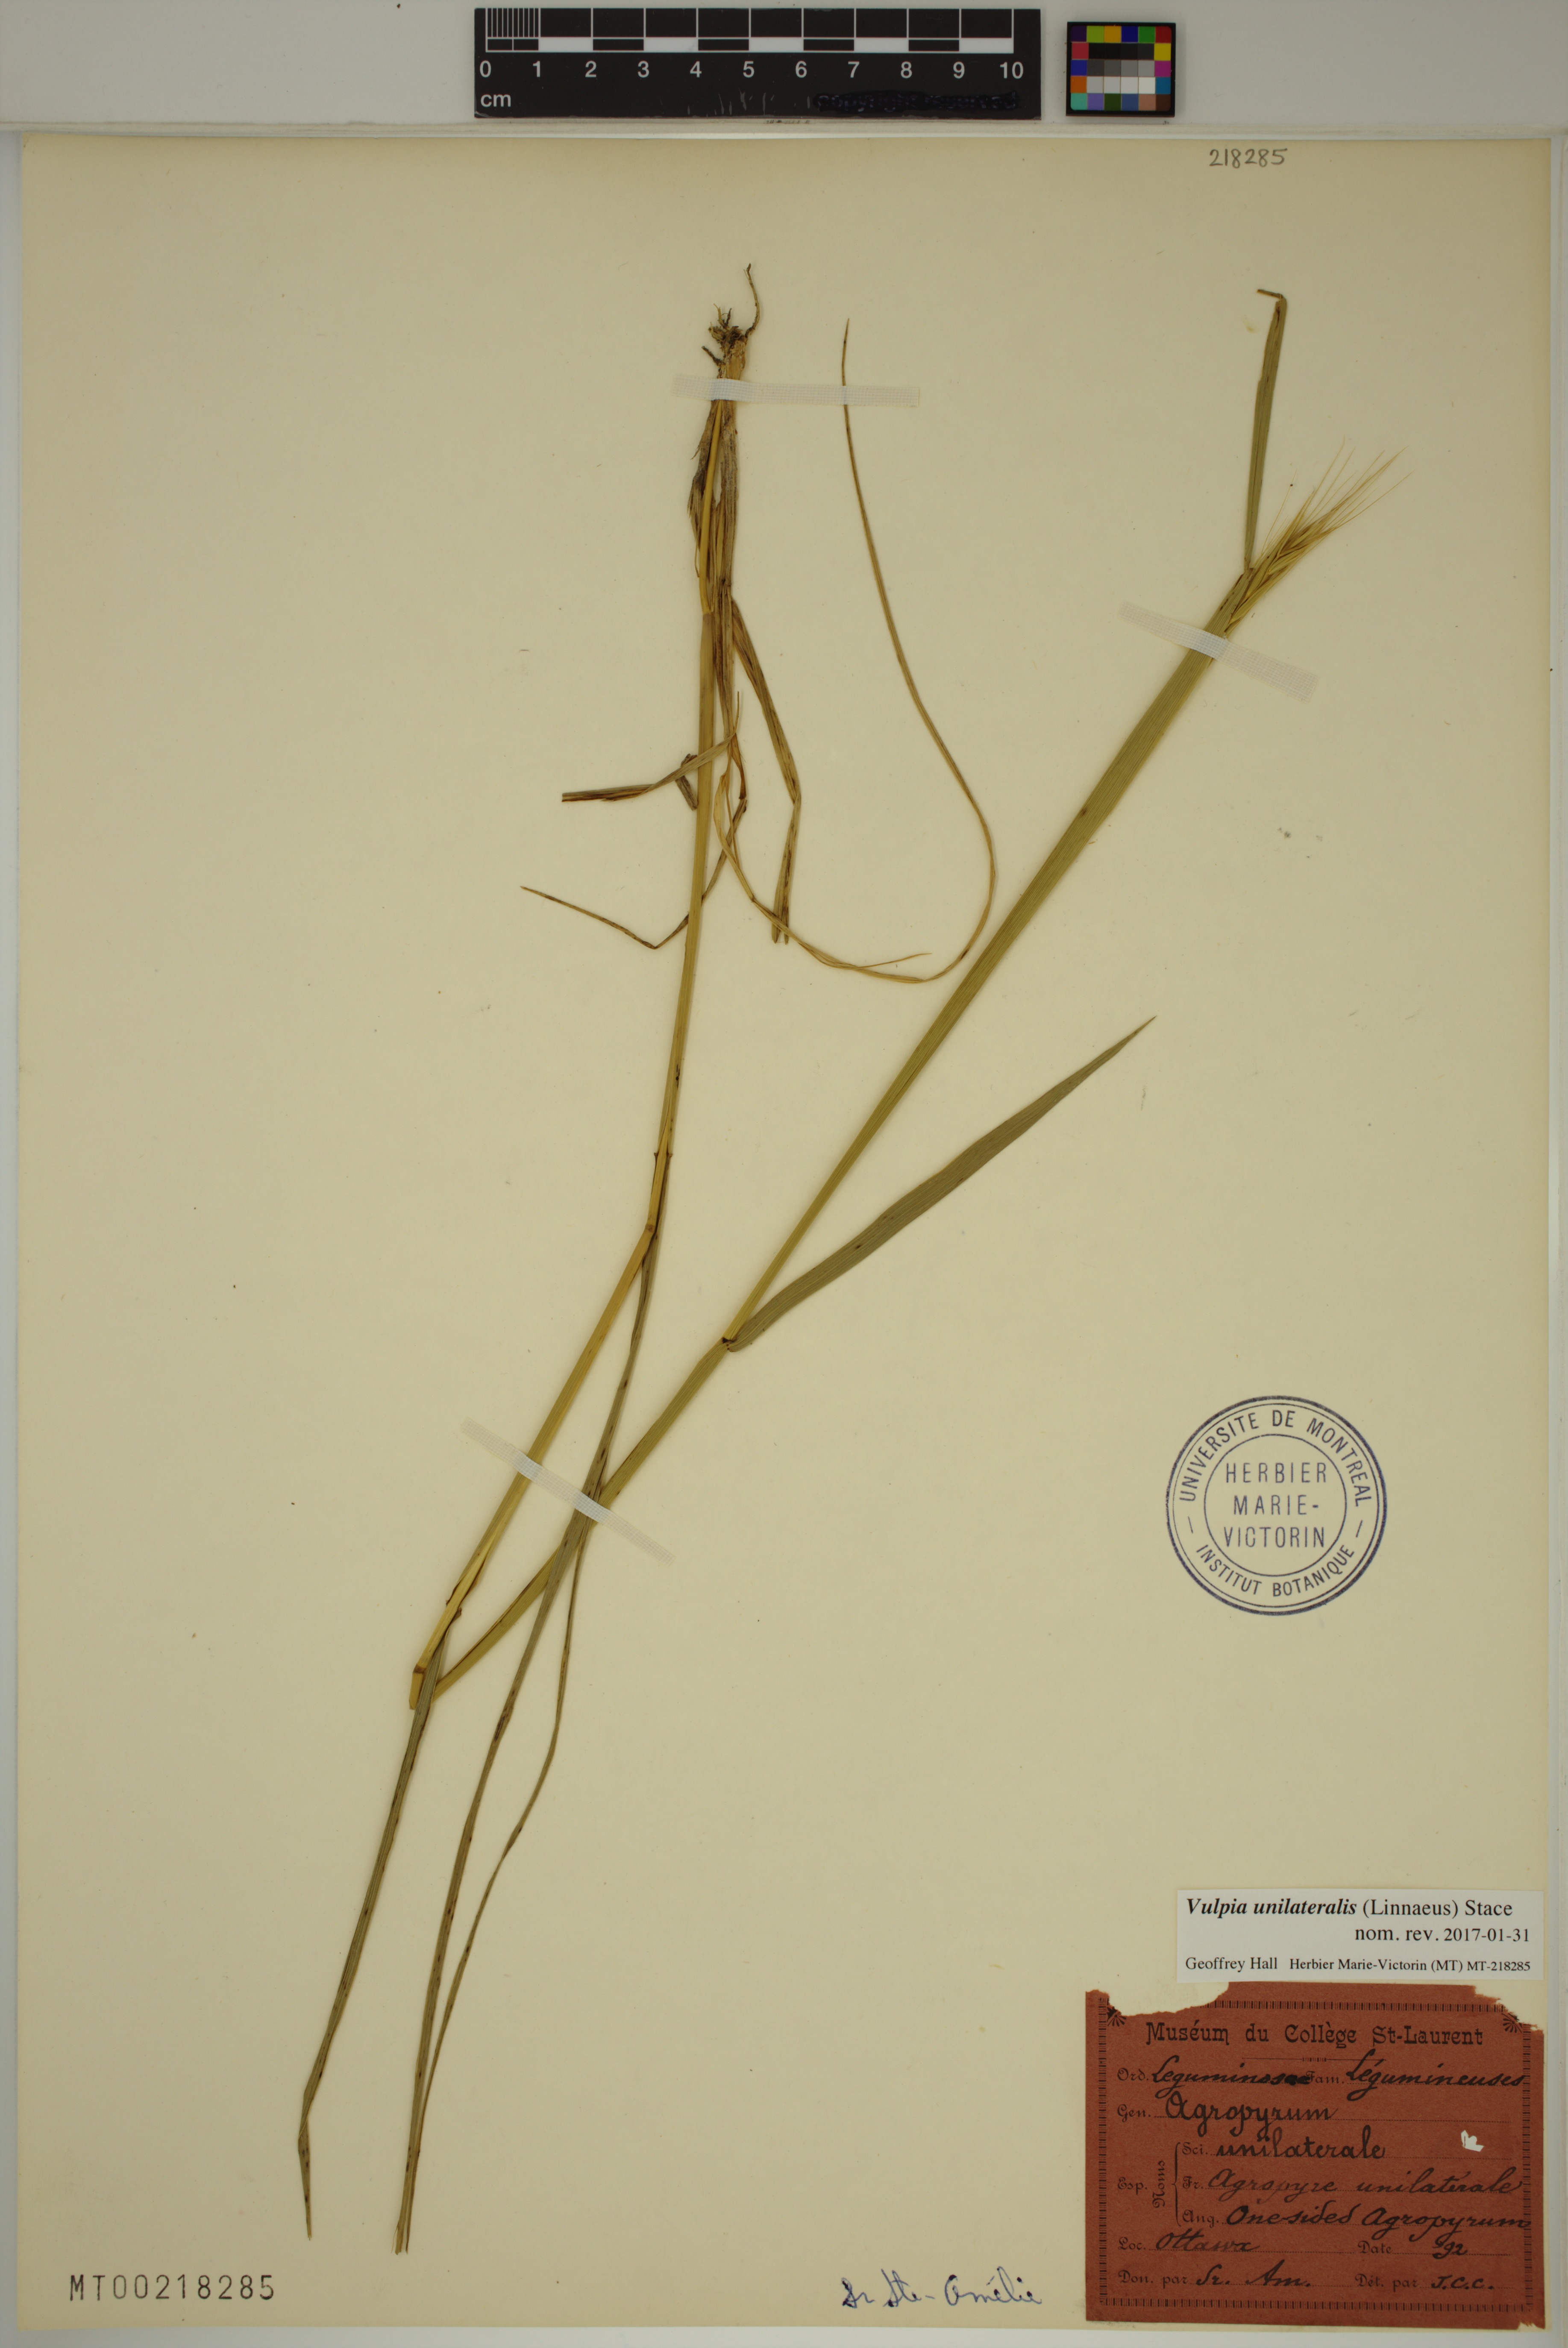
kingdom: Plantae
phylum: Tracheophyta
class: Liliopsida
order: Poales
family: Poaceae
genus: Festuca
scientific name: Festuca maritima
